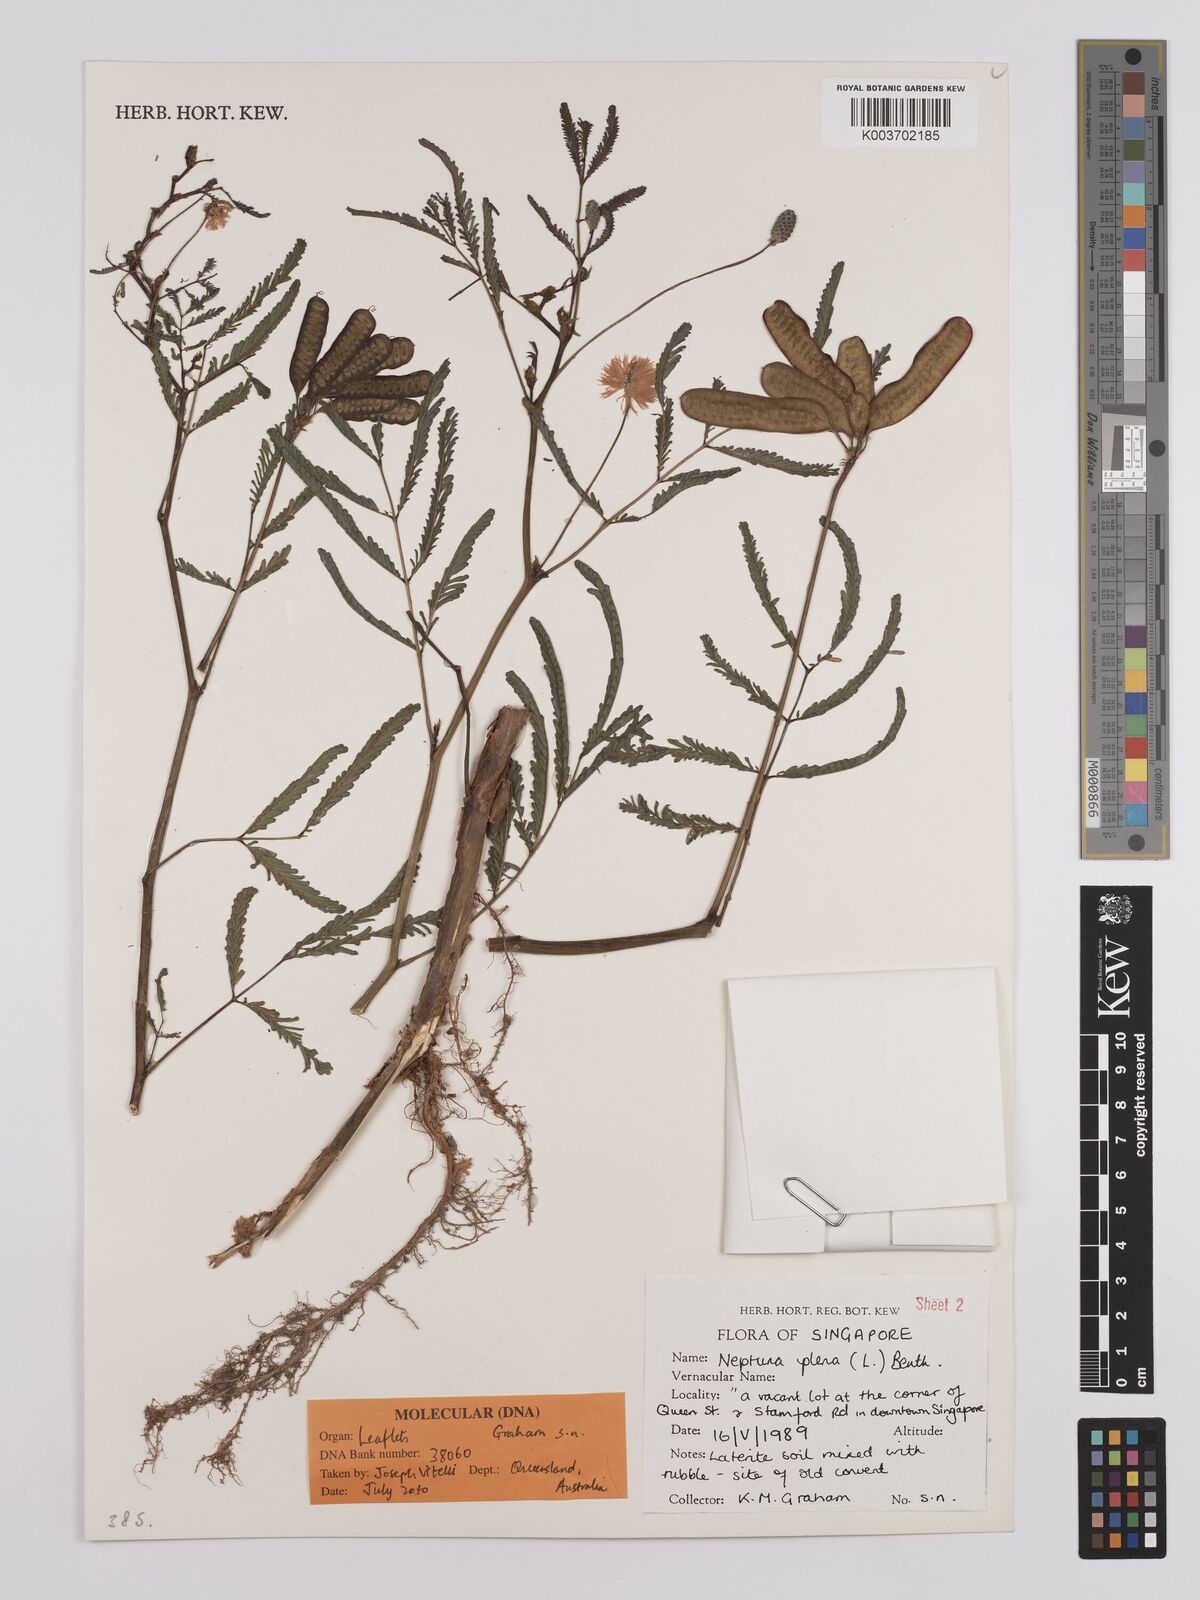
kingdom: Plantae
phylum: Tracheophyta
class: Magnoliopsida
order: Fabales
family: Fabaceae
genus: Neptunia
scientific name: Neptunia plena
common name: Dead and awake
